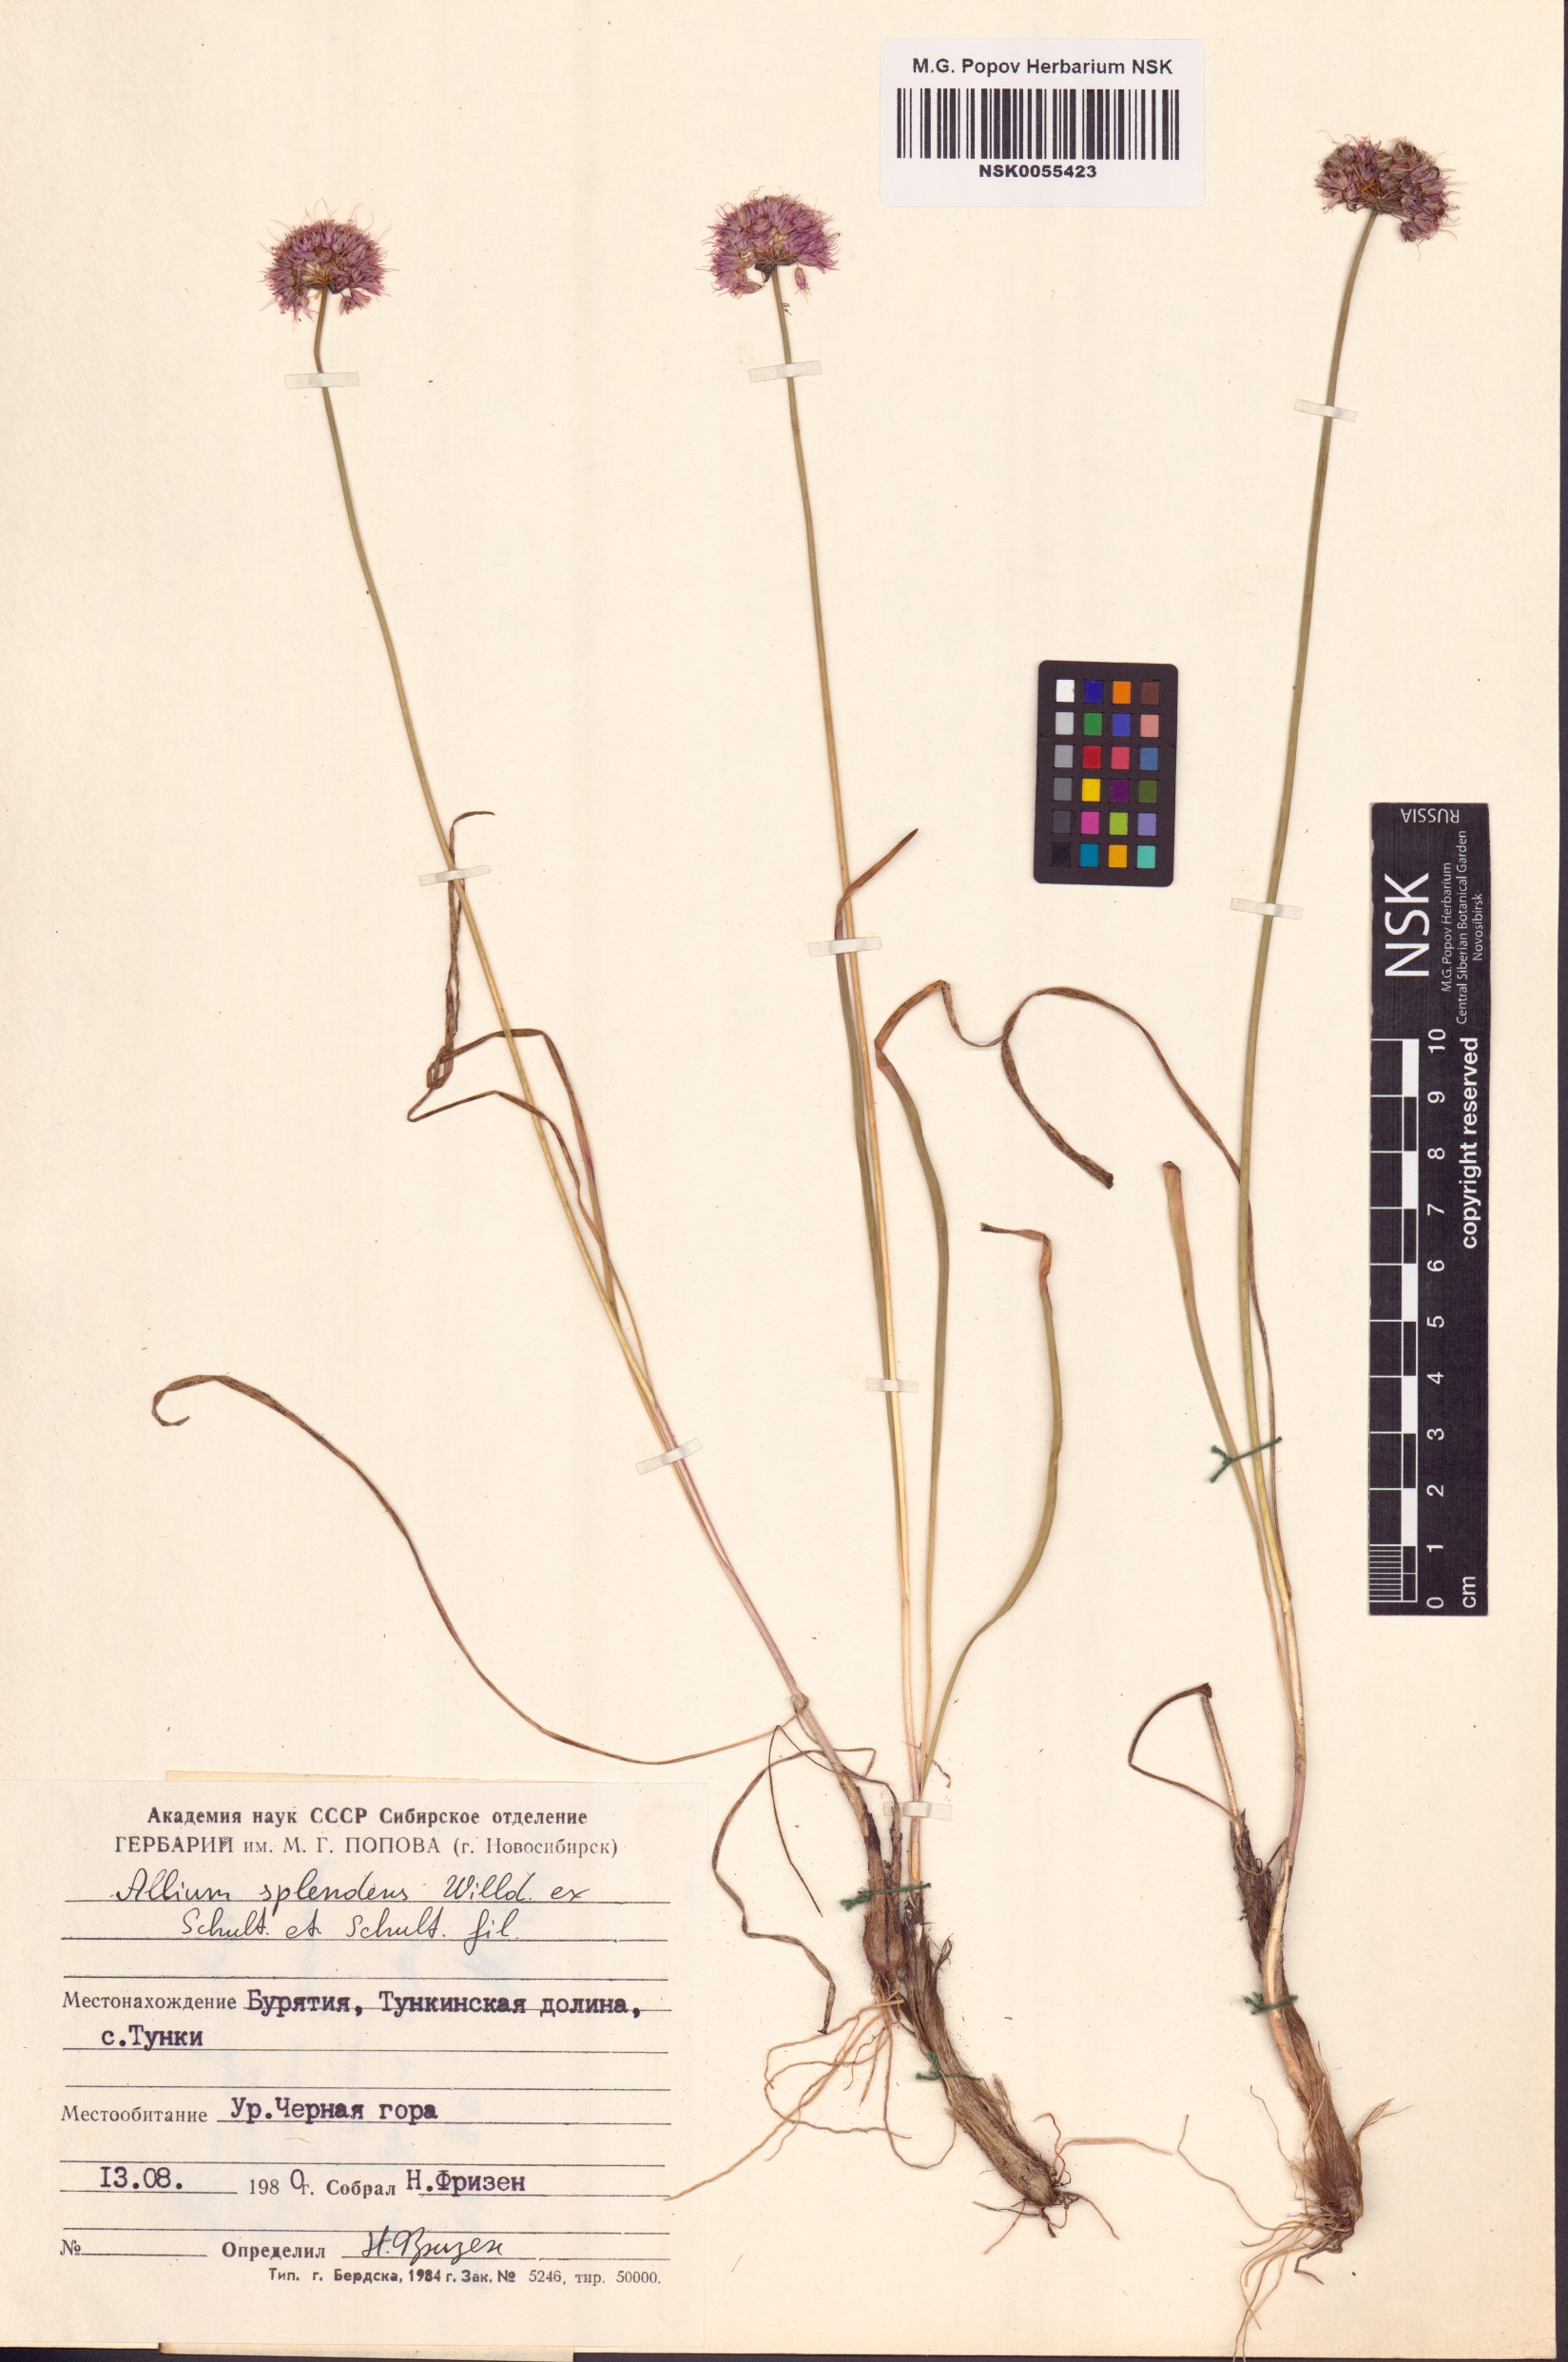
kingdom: Plantae
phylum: Tracheophyta
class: Liliopsida
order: Asparagales
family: Amaryllidaceae
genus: Allium
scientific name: Allium splendens
